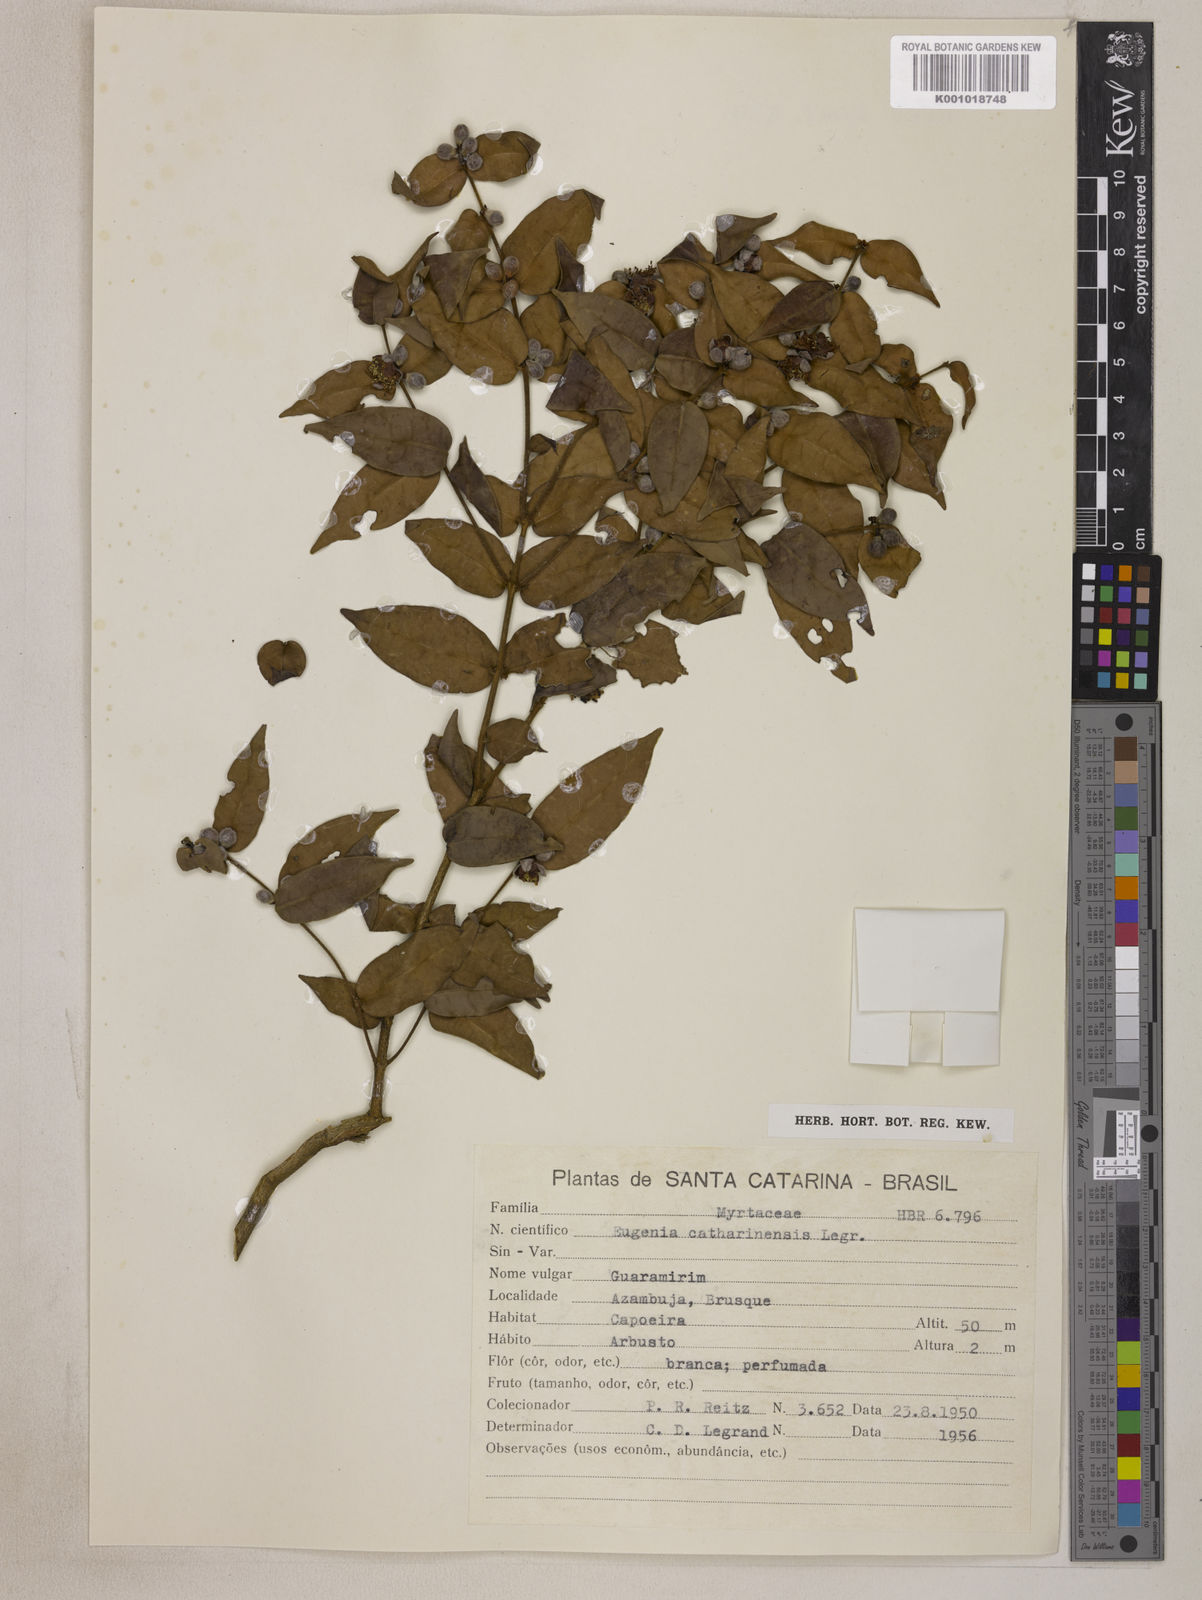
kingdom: Plantae
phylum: Tracheophyta
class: Magnoliopsida
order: Myrtales
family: Myrtaceae
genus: Eugenia
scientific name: Eugenia catharinensis
